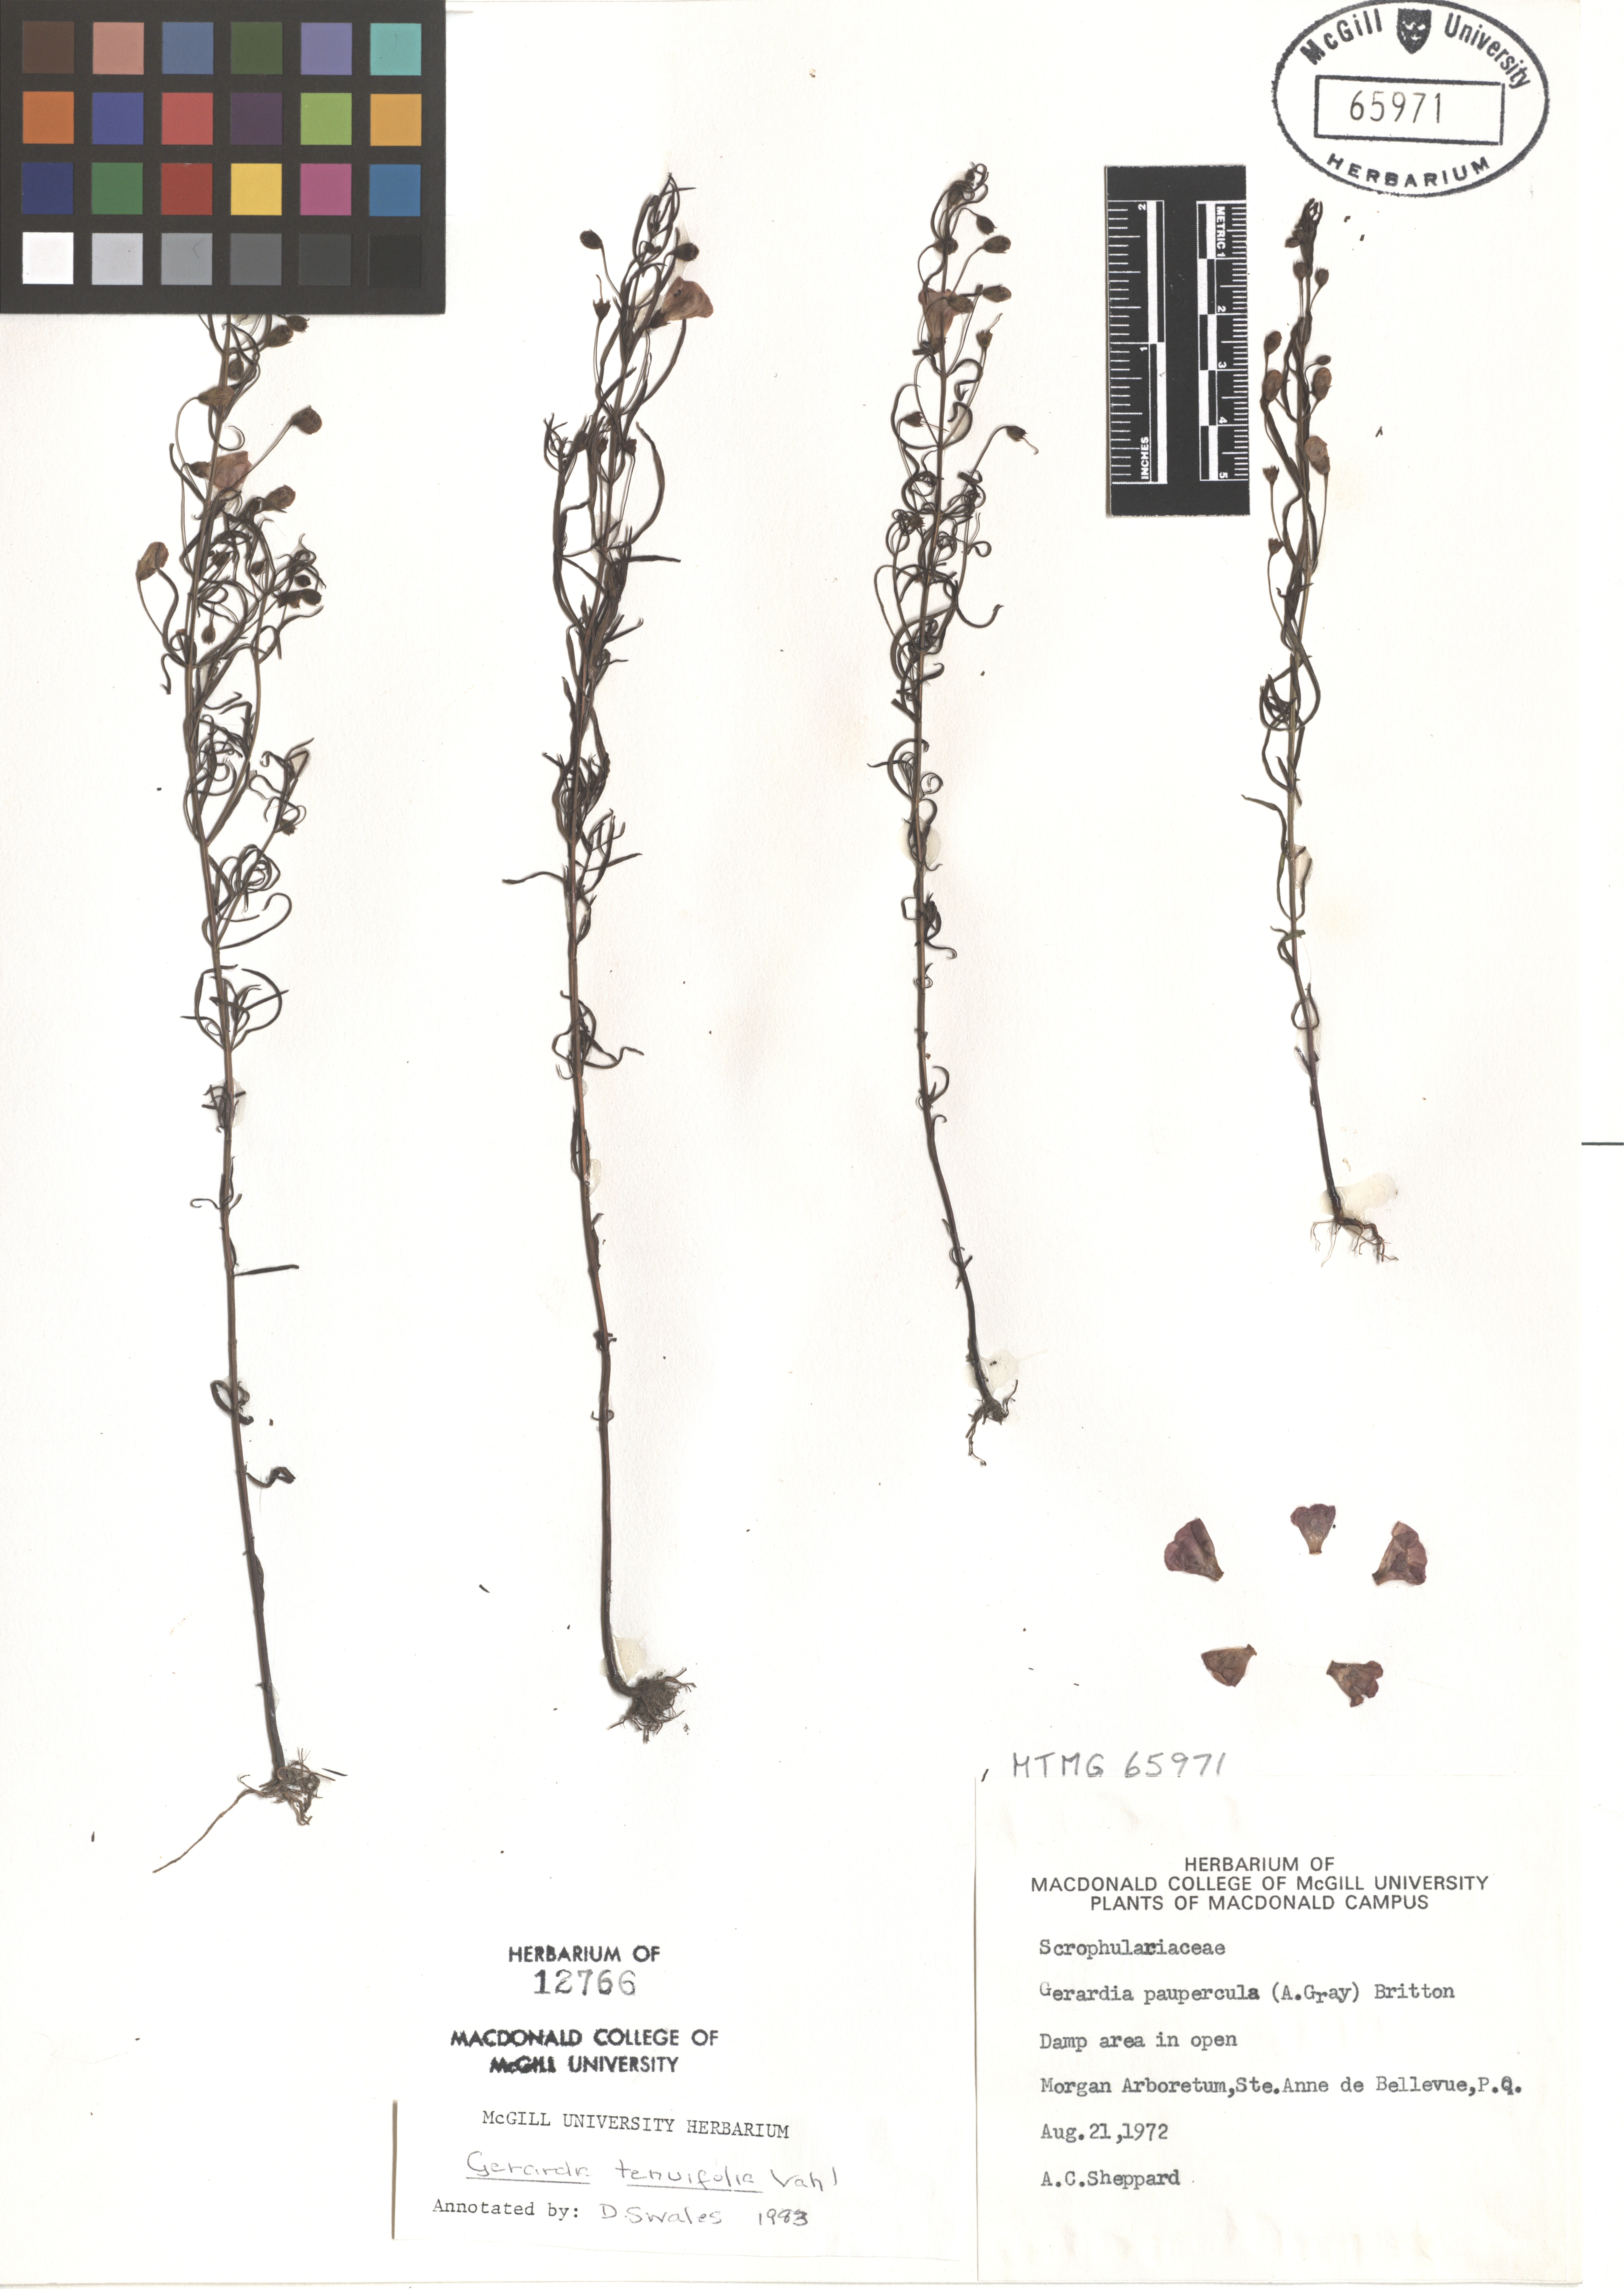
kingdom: Plantae
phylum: Tracheophyta
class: Magnoliopsida
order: Lamiales
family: Orobanchaceae
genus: Agalinis
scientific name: Agalinis tenuifolia
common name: Slender agalinis
